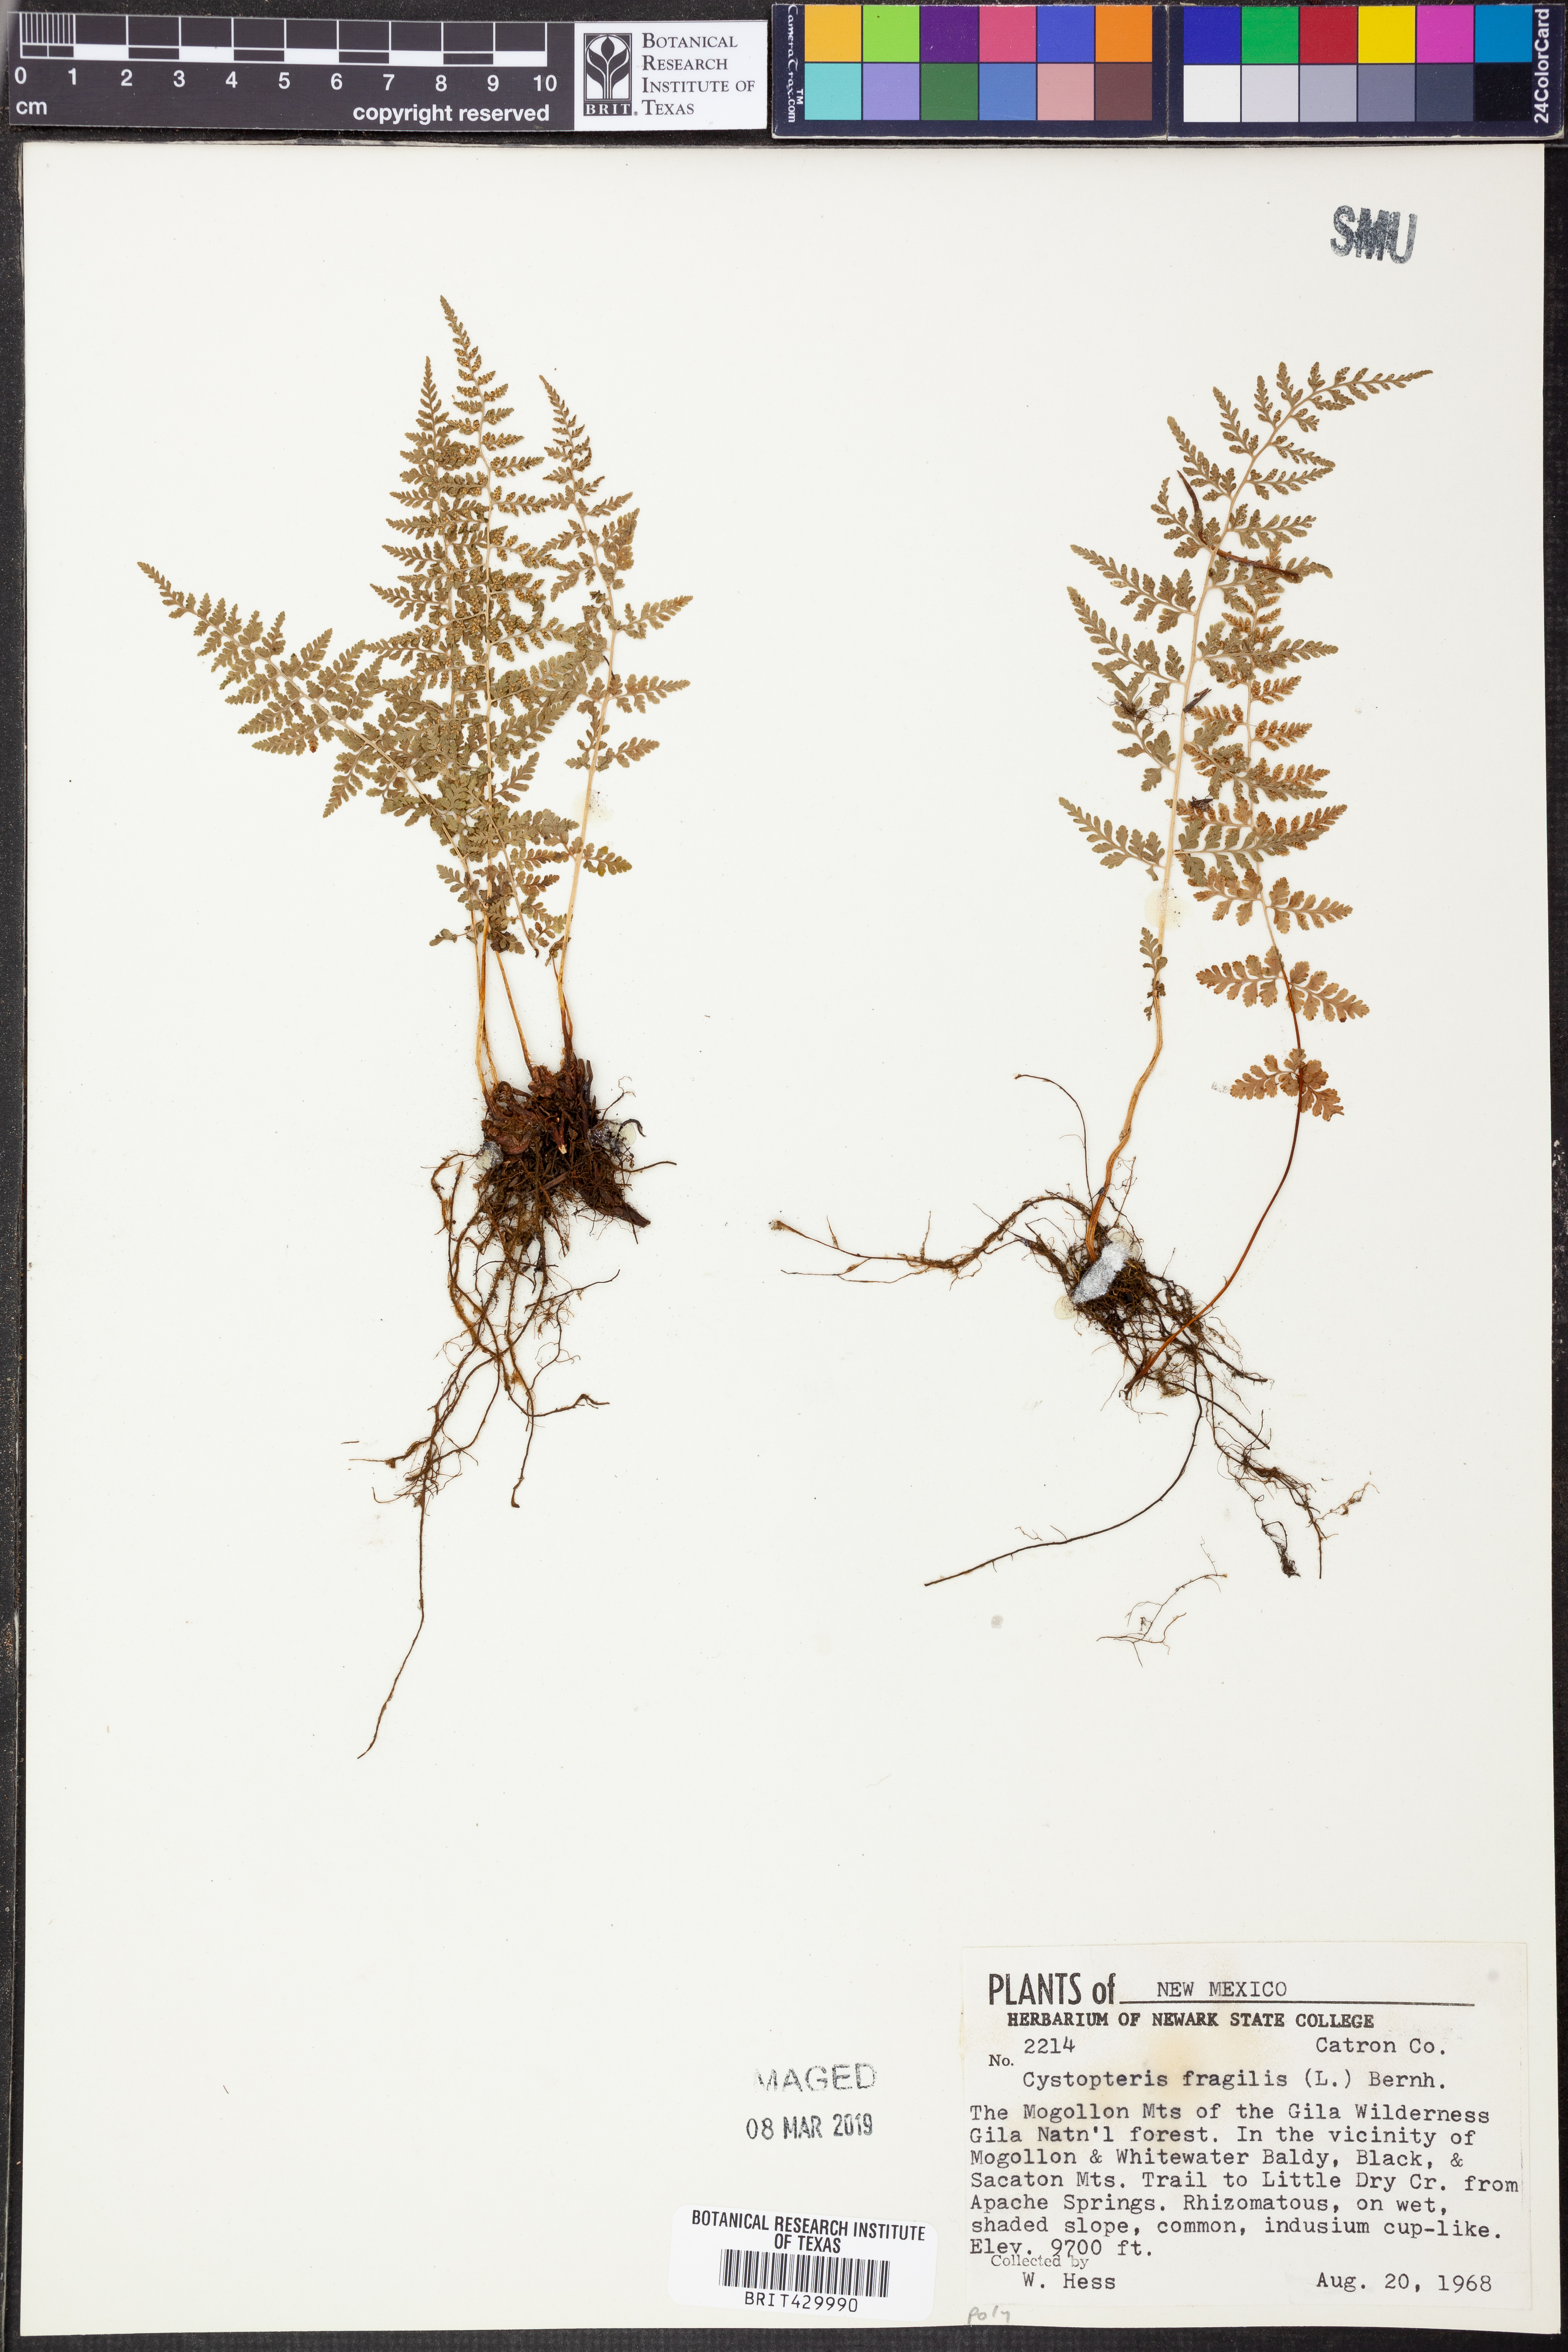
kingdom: Plantae
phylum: Tracheophyta
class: Polypodiopsida
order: Polypodiales
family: Cystopteridaceae
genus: Cystopteris
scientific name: Cystopteris fragilis
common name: Brittle bladder fern
